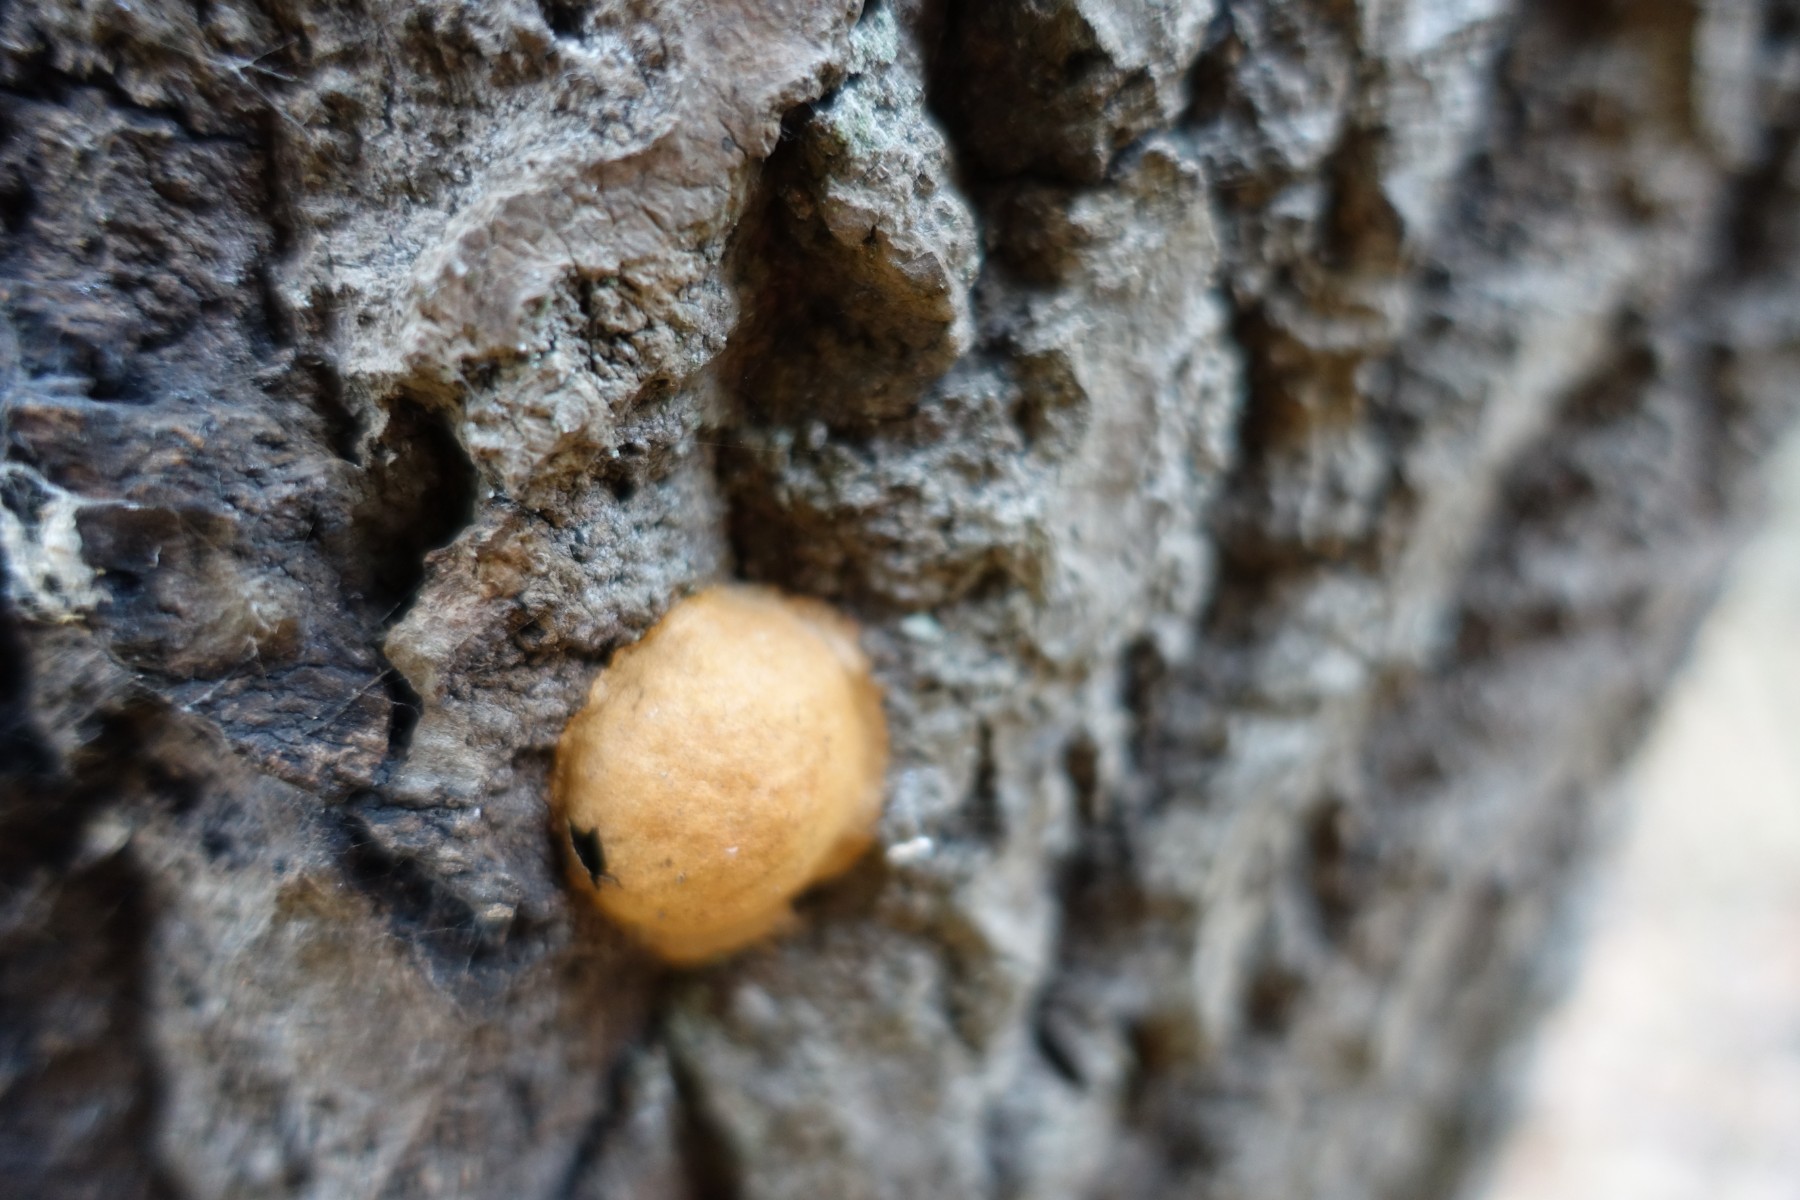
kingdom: Protozoa
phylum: Mycetozoa
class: Myxomycetes
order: Physarales
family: Physaraceae
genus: Fuligo
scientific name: Fuligo leviderma
